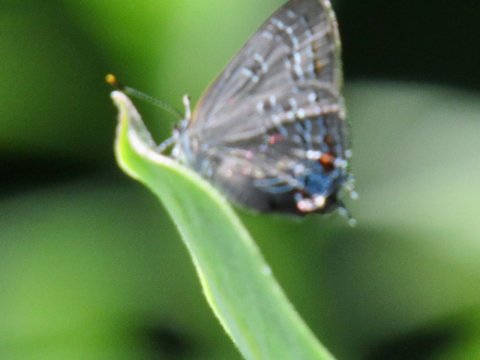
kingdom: Animalia
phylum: Arthropoda
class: Insecta
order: Lepidoptera
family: Lycaenidae
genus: Satyrium
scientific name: Satyrium calanus
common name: Banded Hairstreak
